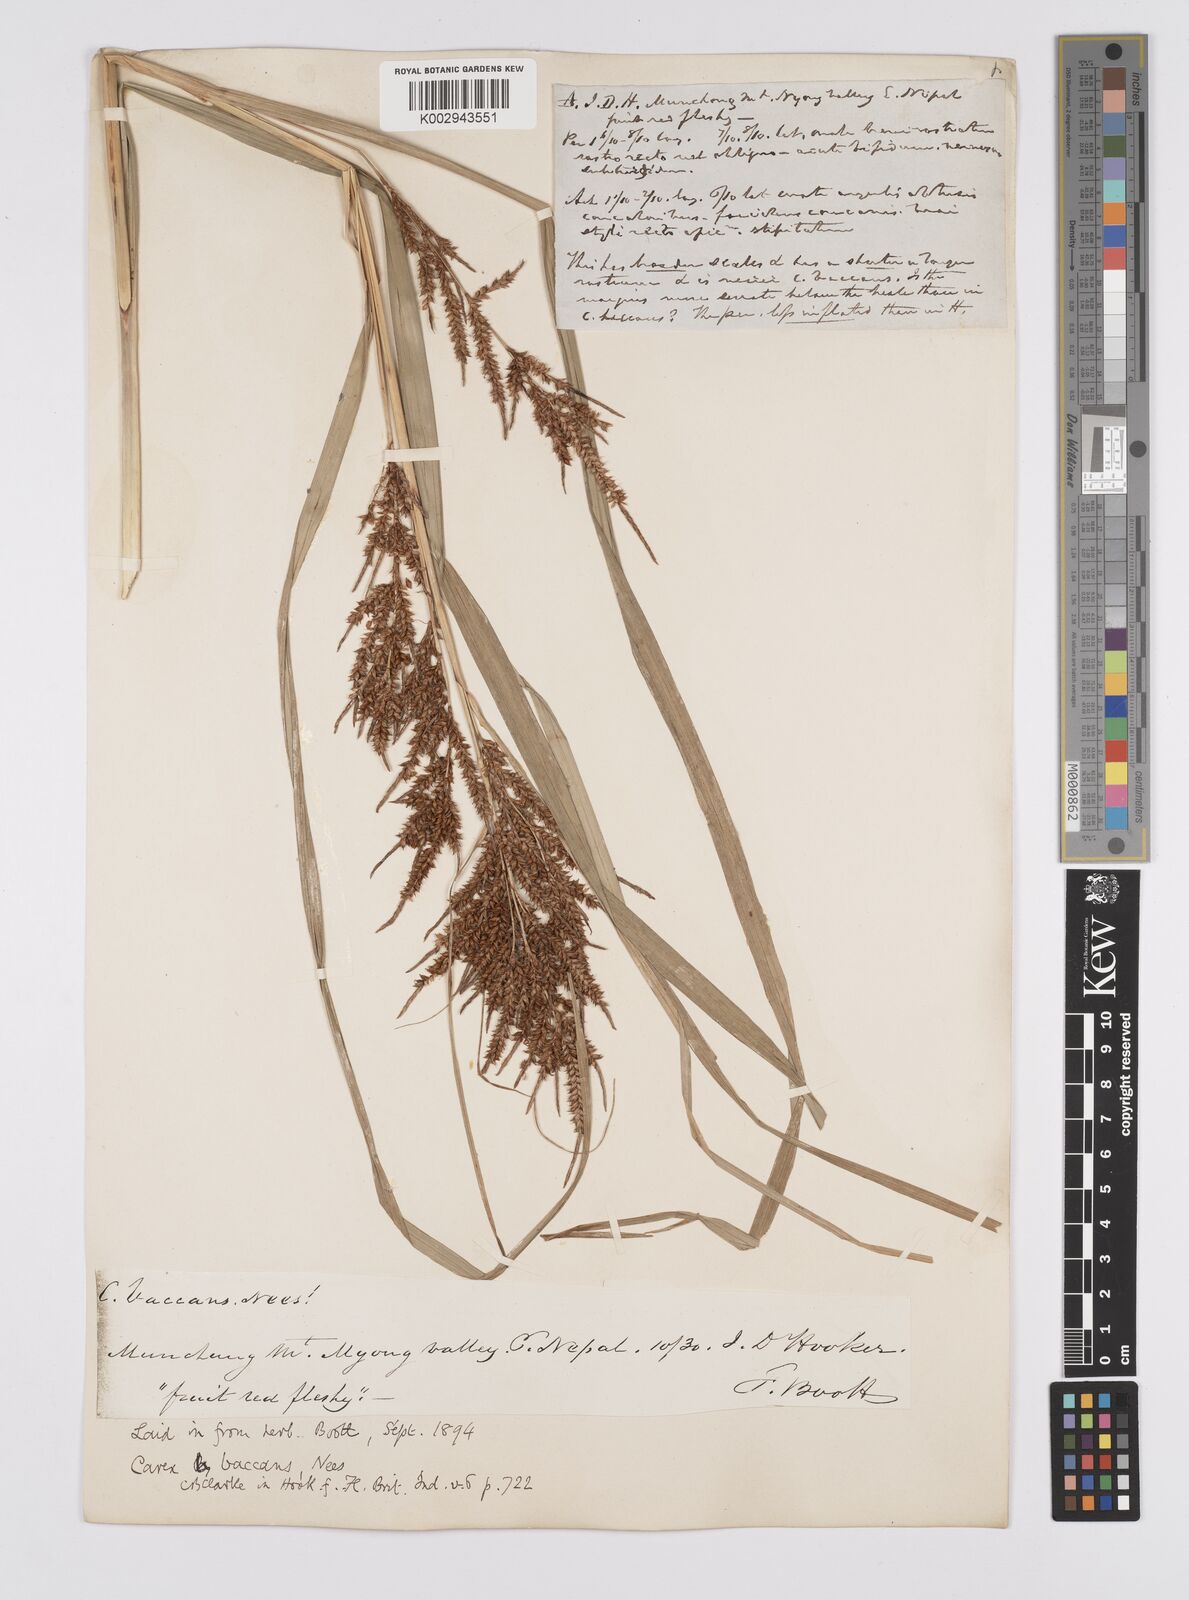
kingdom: Plantae
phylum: Tracheophyta
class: Liliopsida
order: Poales
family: Cyperaceae
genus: Carex
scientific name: Carex baccans
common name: Crimson seeded sedge
